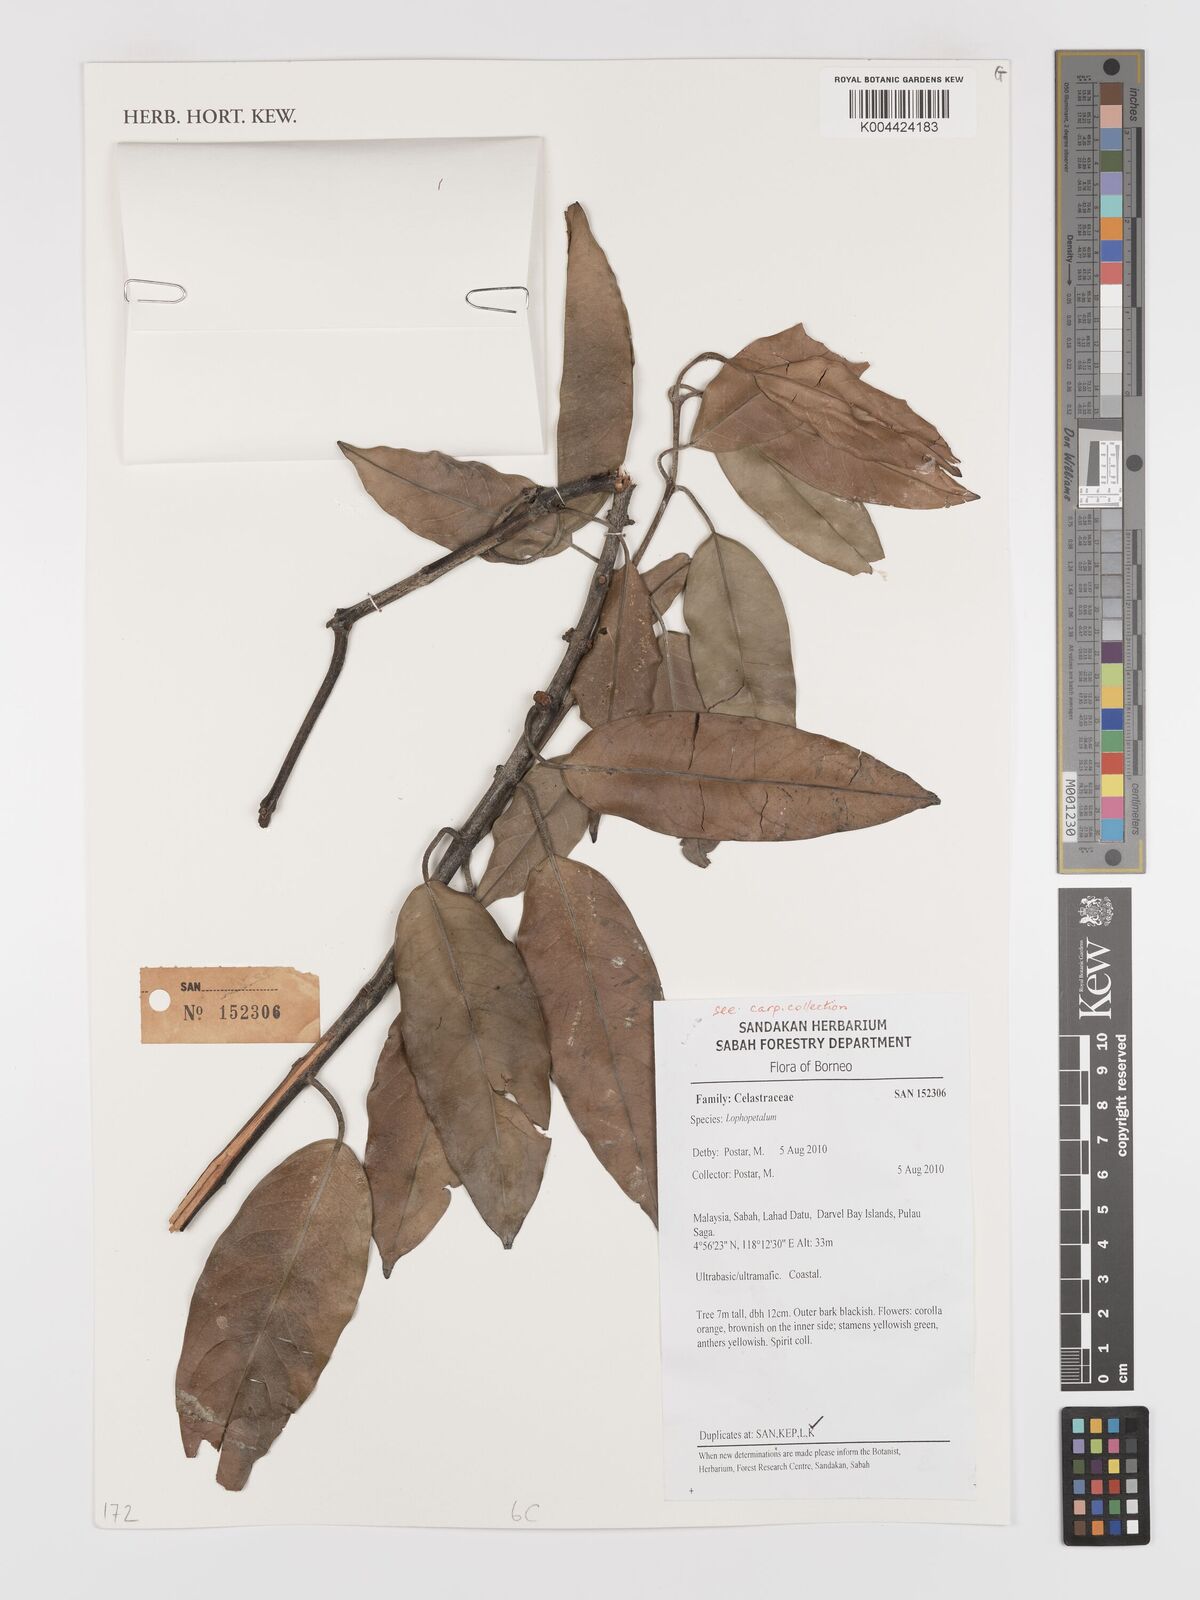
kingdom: Plantae
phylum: Tracheophyta
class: Magnoliopsida
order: Celastrales
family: Celastraceae
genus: Lophopetalum
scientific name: Lophopetalum beccarianum
